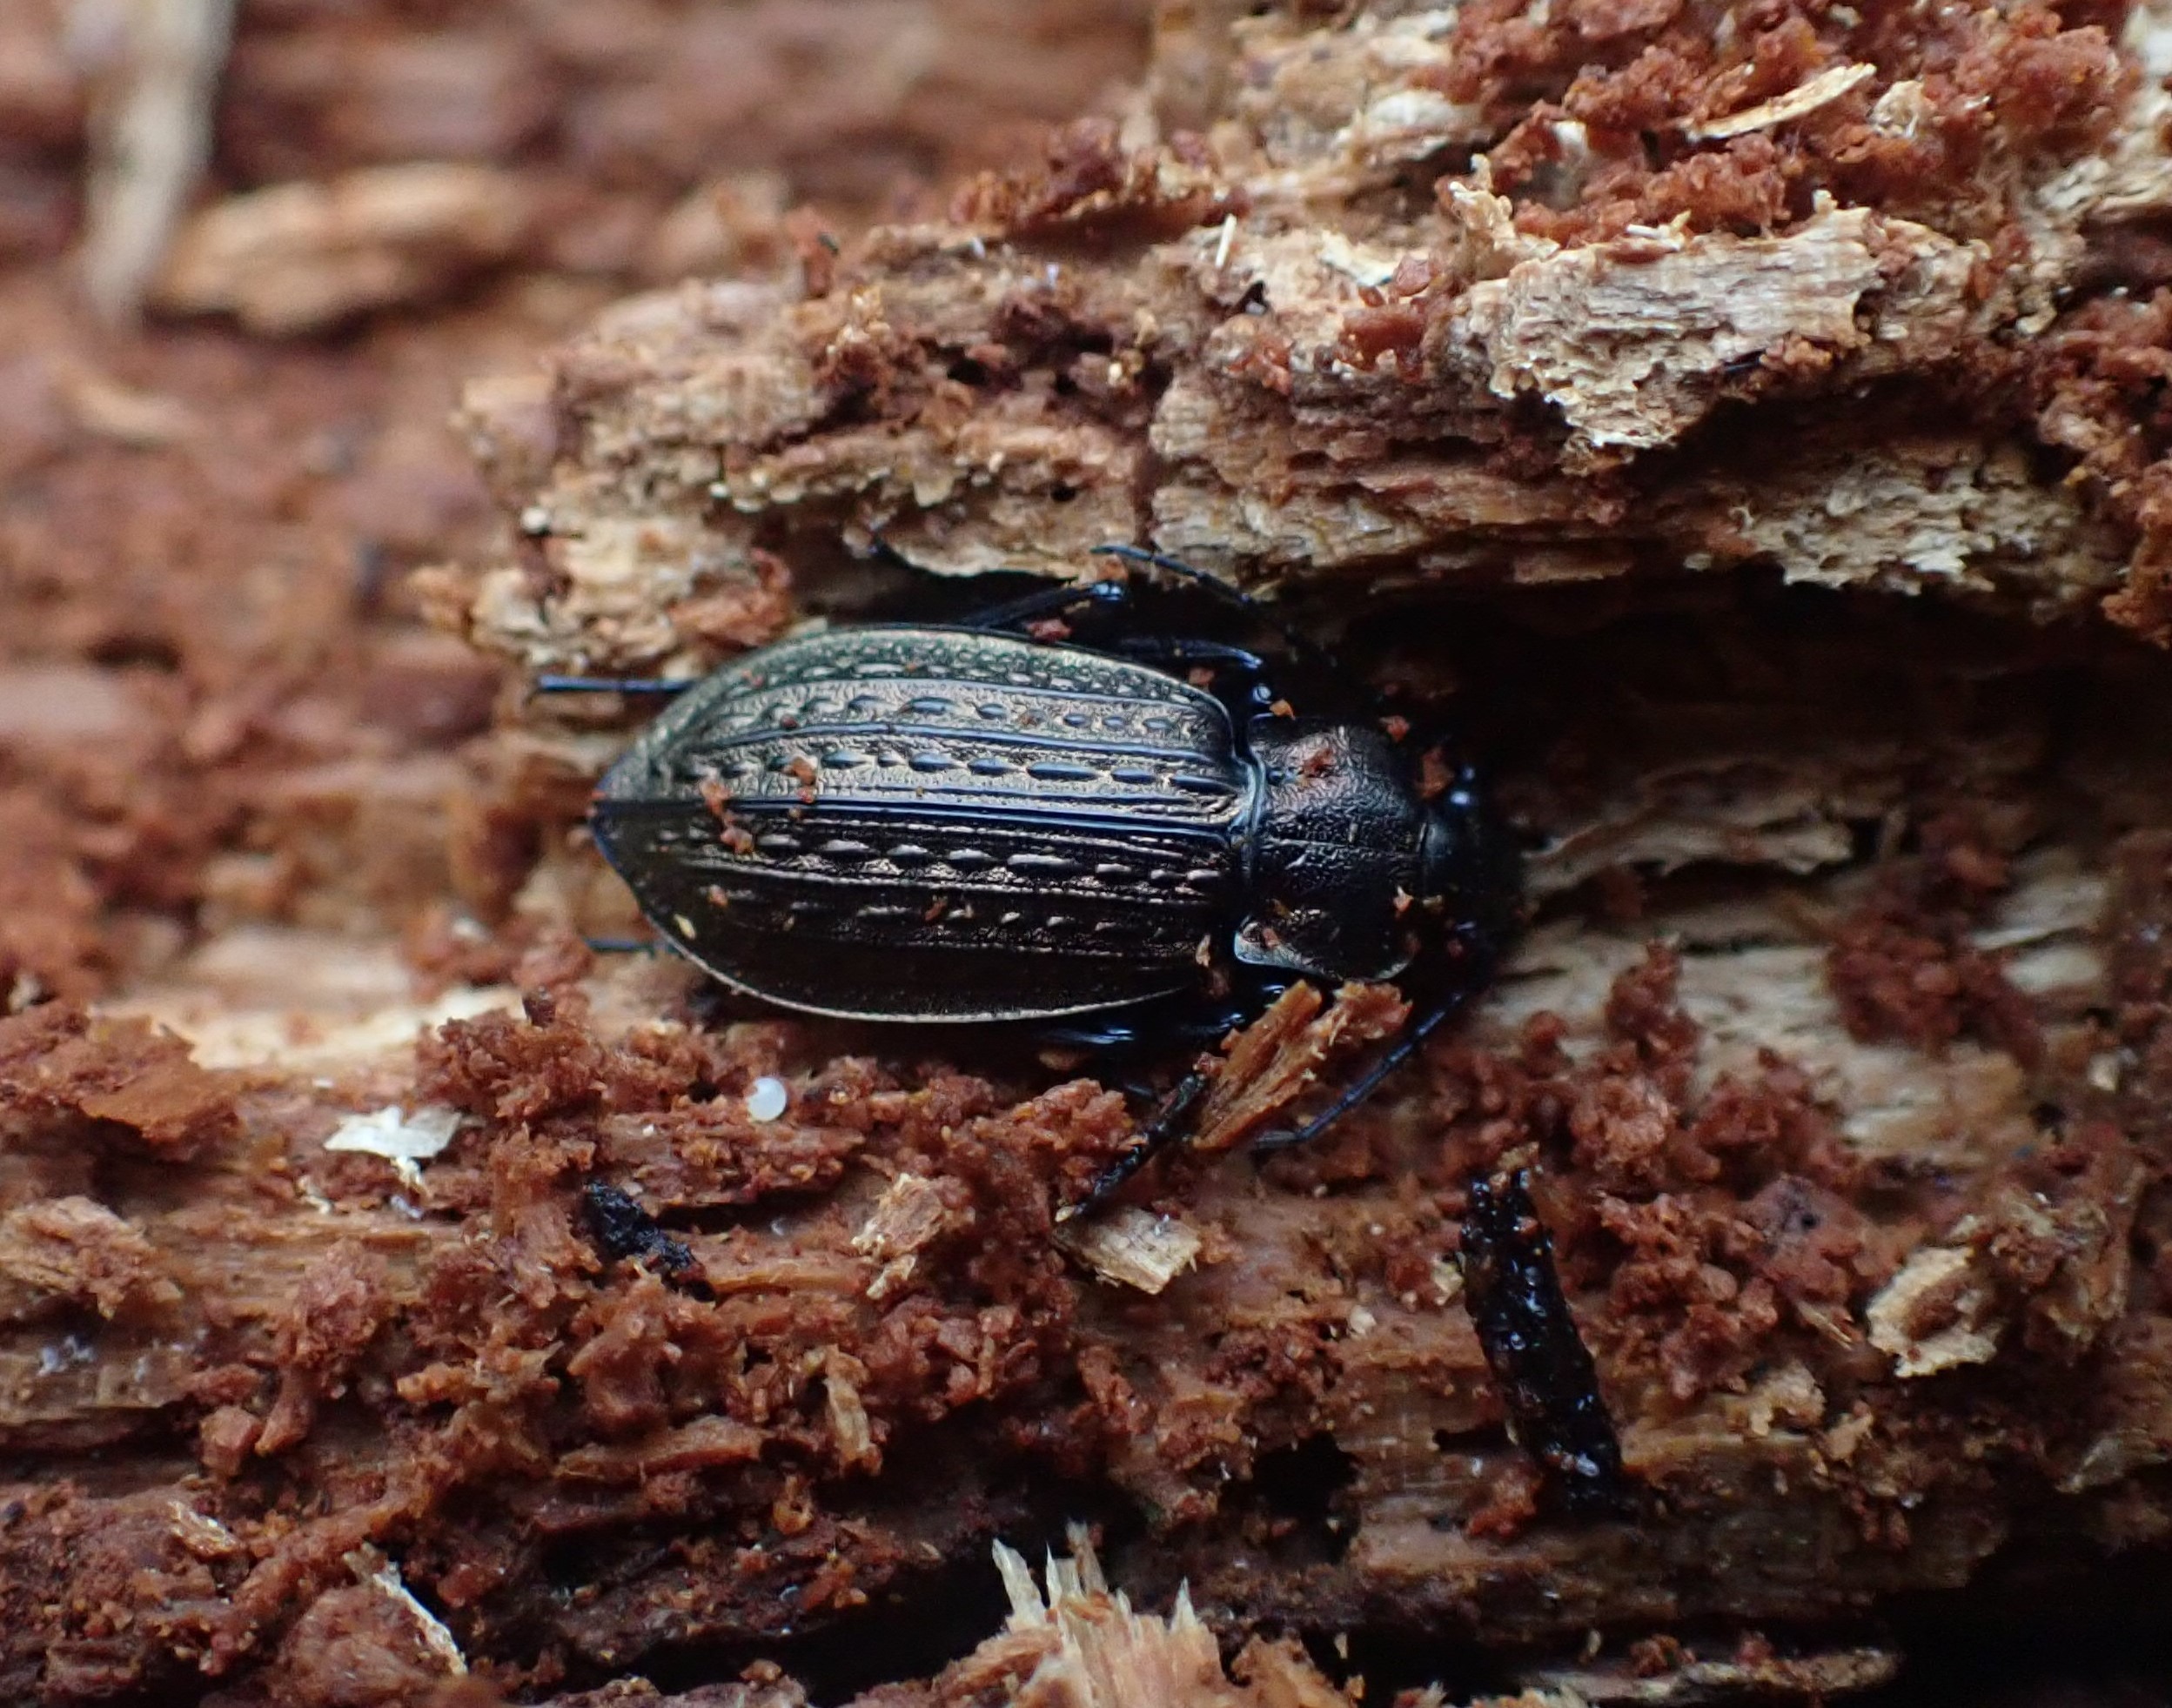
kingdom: Animalia
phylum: Arthropoda
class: Insecta
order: Coleoptera
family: Carabidae
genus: Carabus
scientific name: Carabus granulatus
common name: Kornet løber
